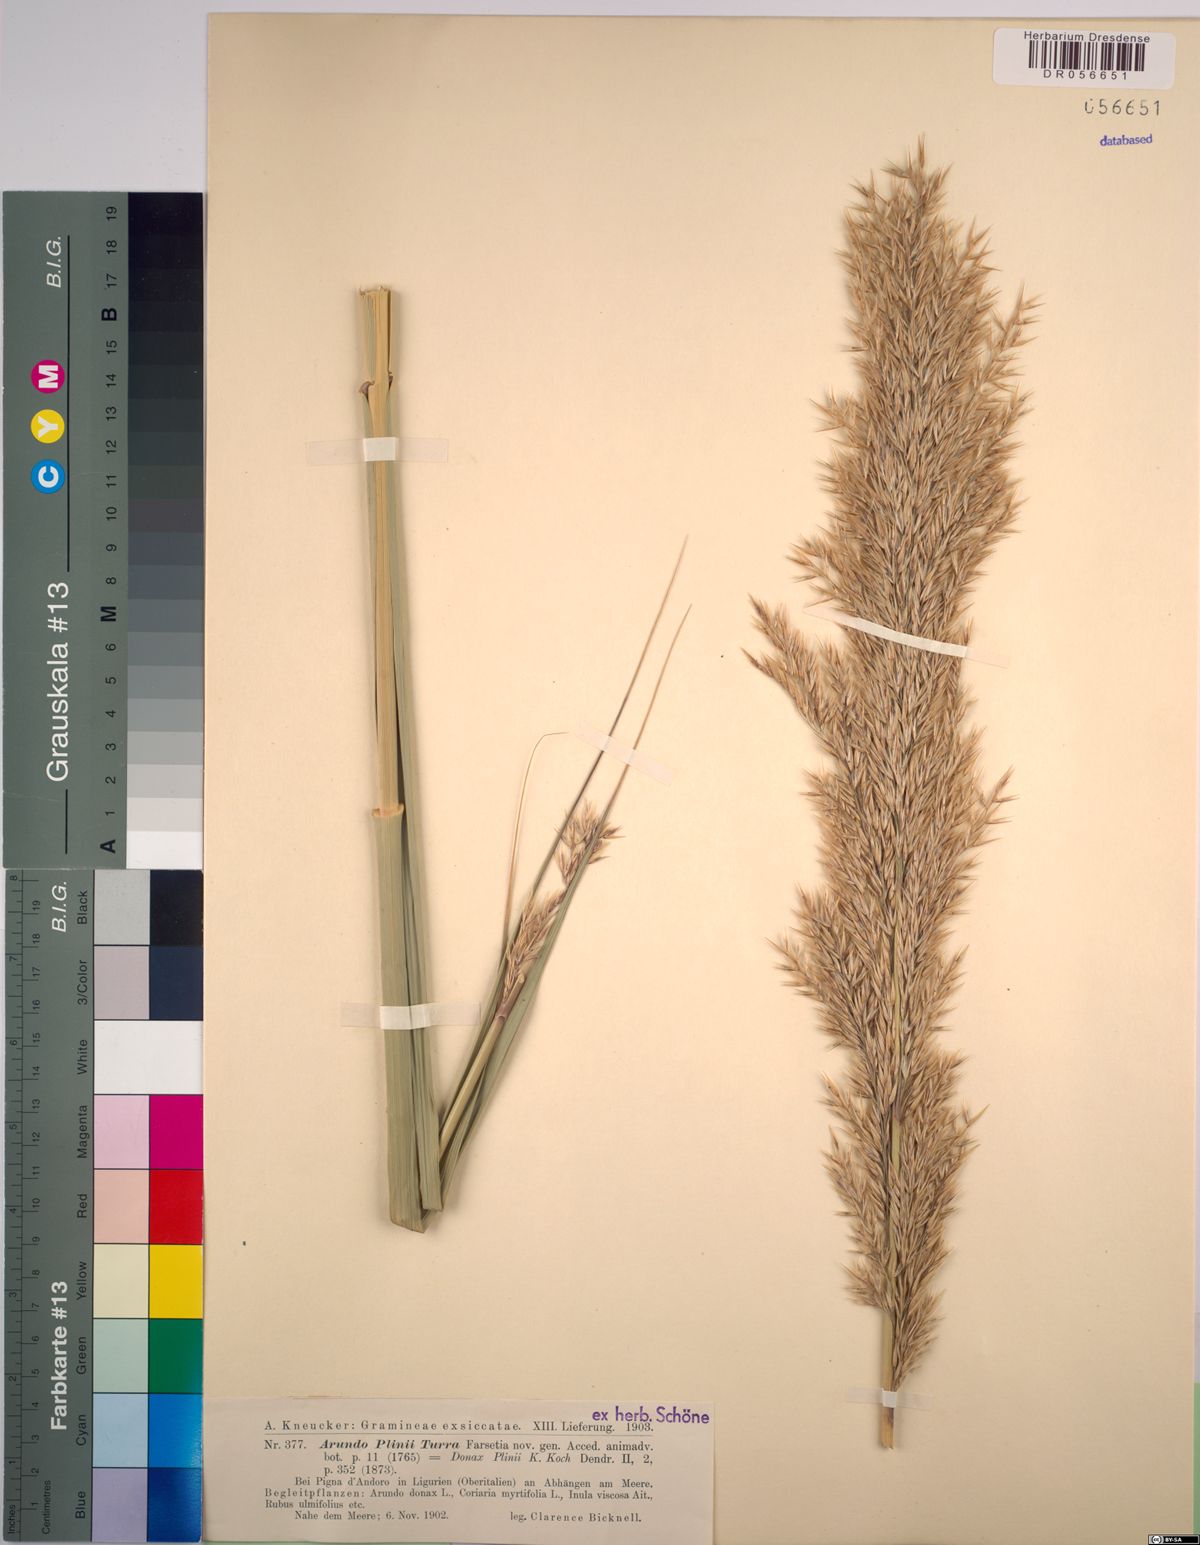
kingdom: Plantae
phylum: Tracheophyta
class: Liliopsida
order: Poales
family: Poaceae
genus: Arundo
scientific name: Arundo plinii
